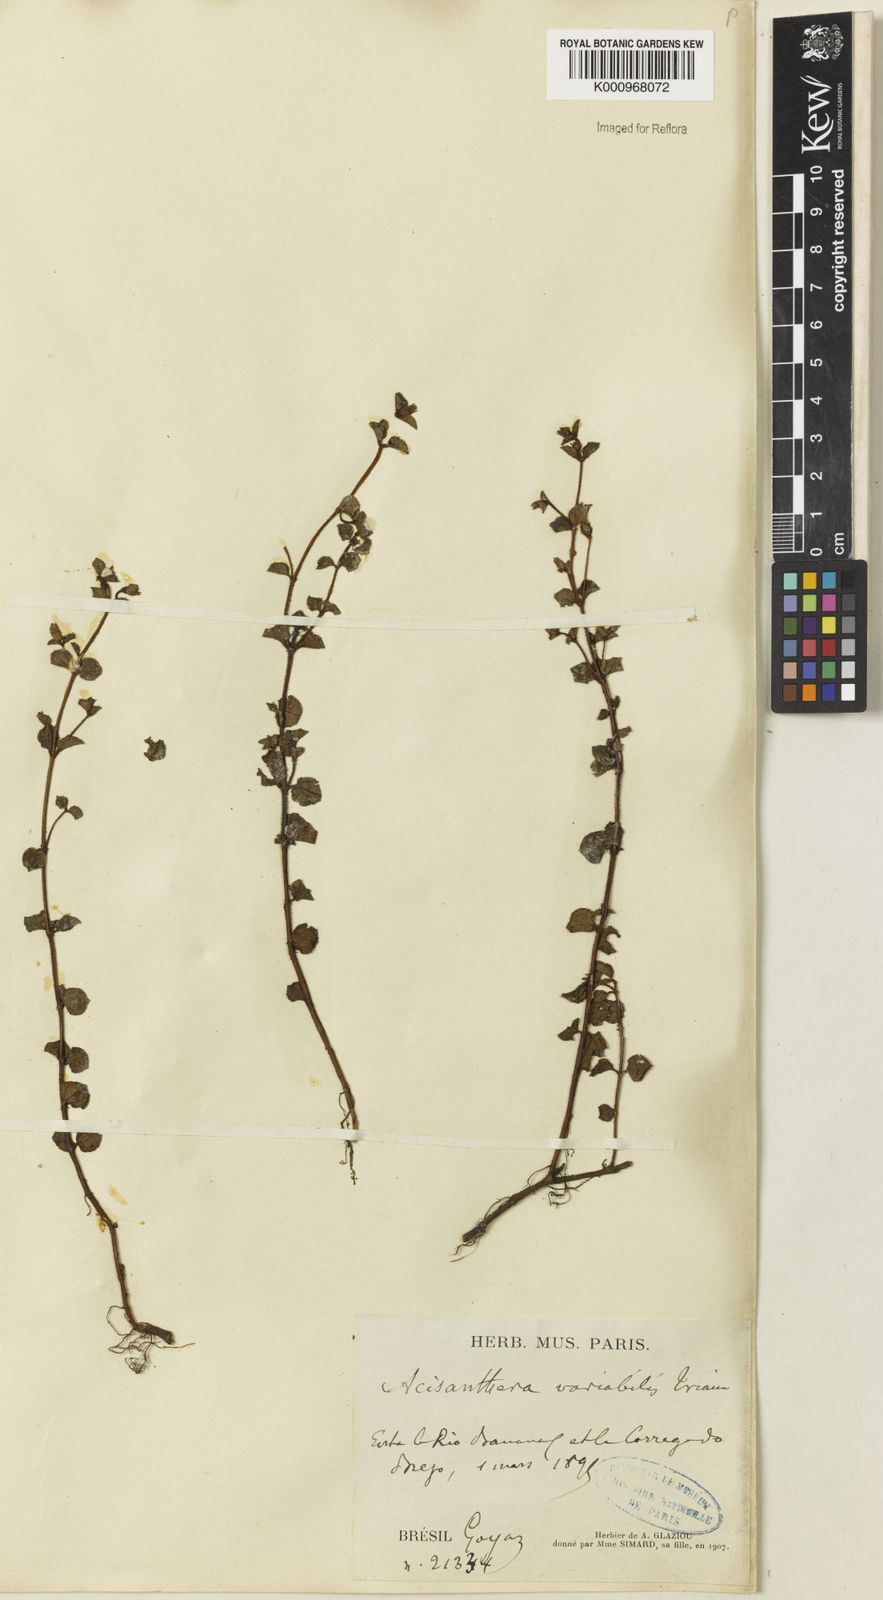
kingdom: Plantae
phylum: Tracheophyta
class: Magnoliopsida
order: Myrtales
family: Melastomataceae
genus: Acisanthera
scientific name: Acisanthera variabilis
